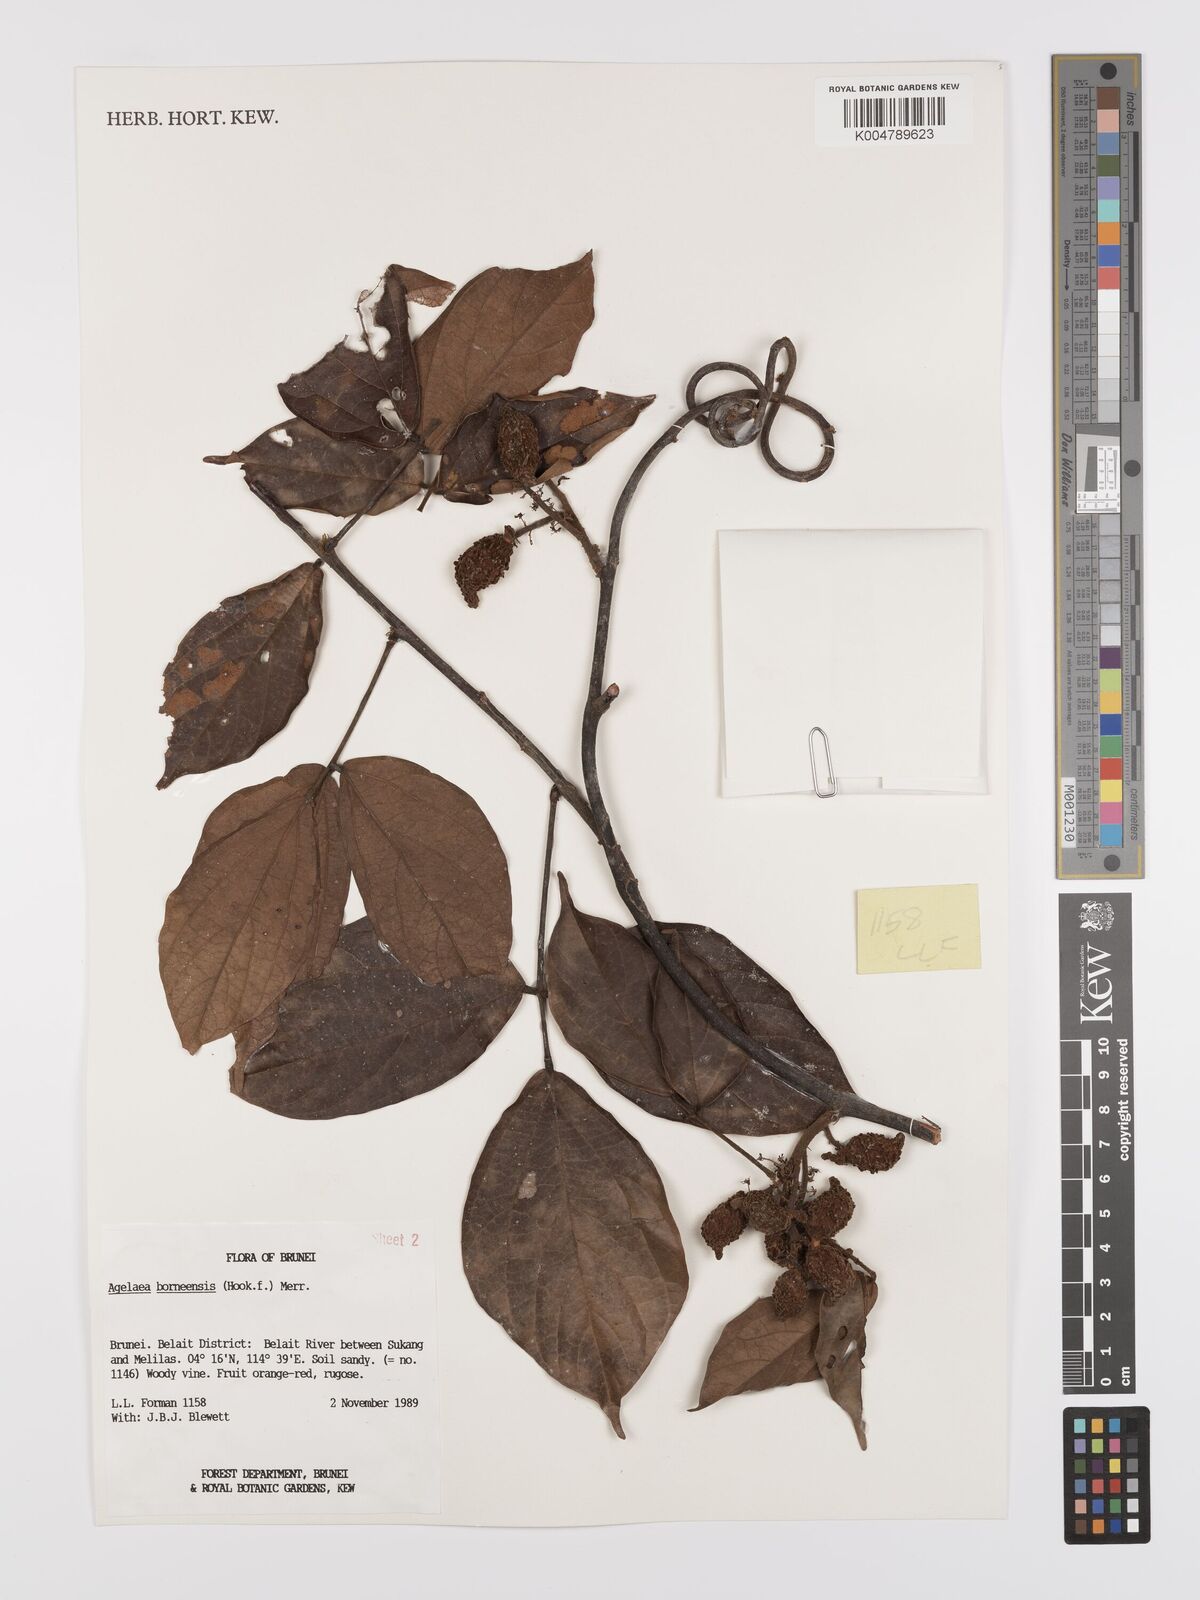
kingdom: Plantae
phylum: Tracheophyta
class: Magnoliopsida
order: Oxalidales
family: Connaraceae
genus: Agelaea
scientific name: Agelaea borneensis
